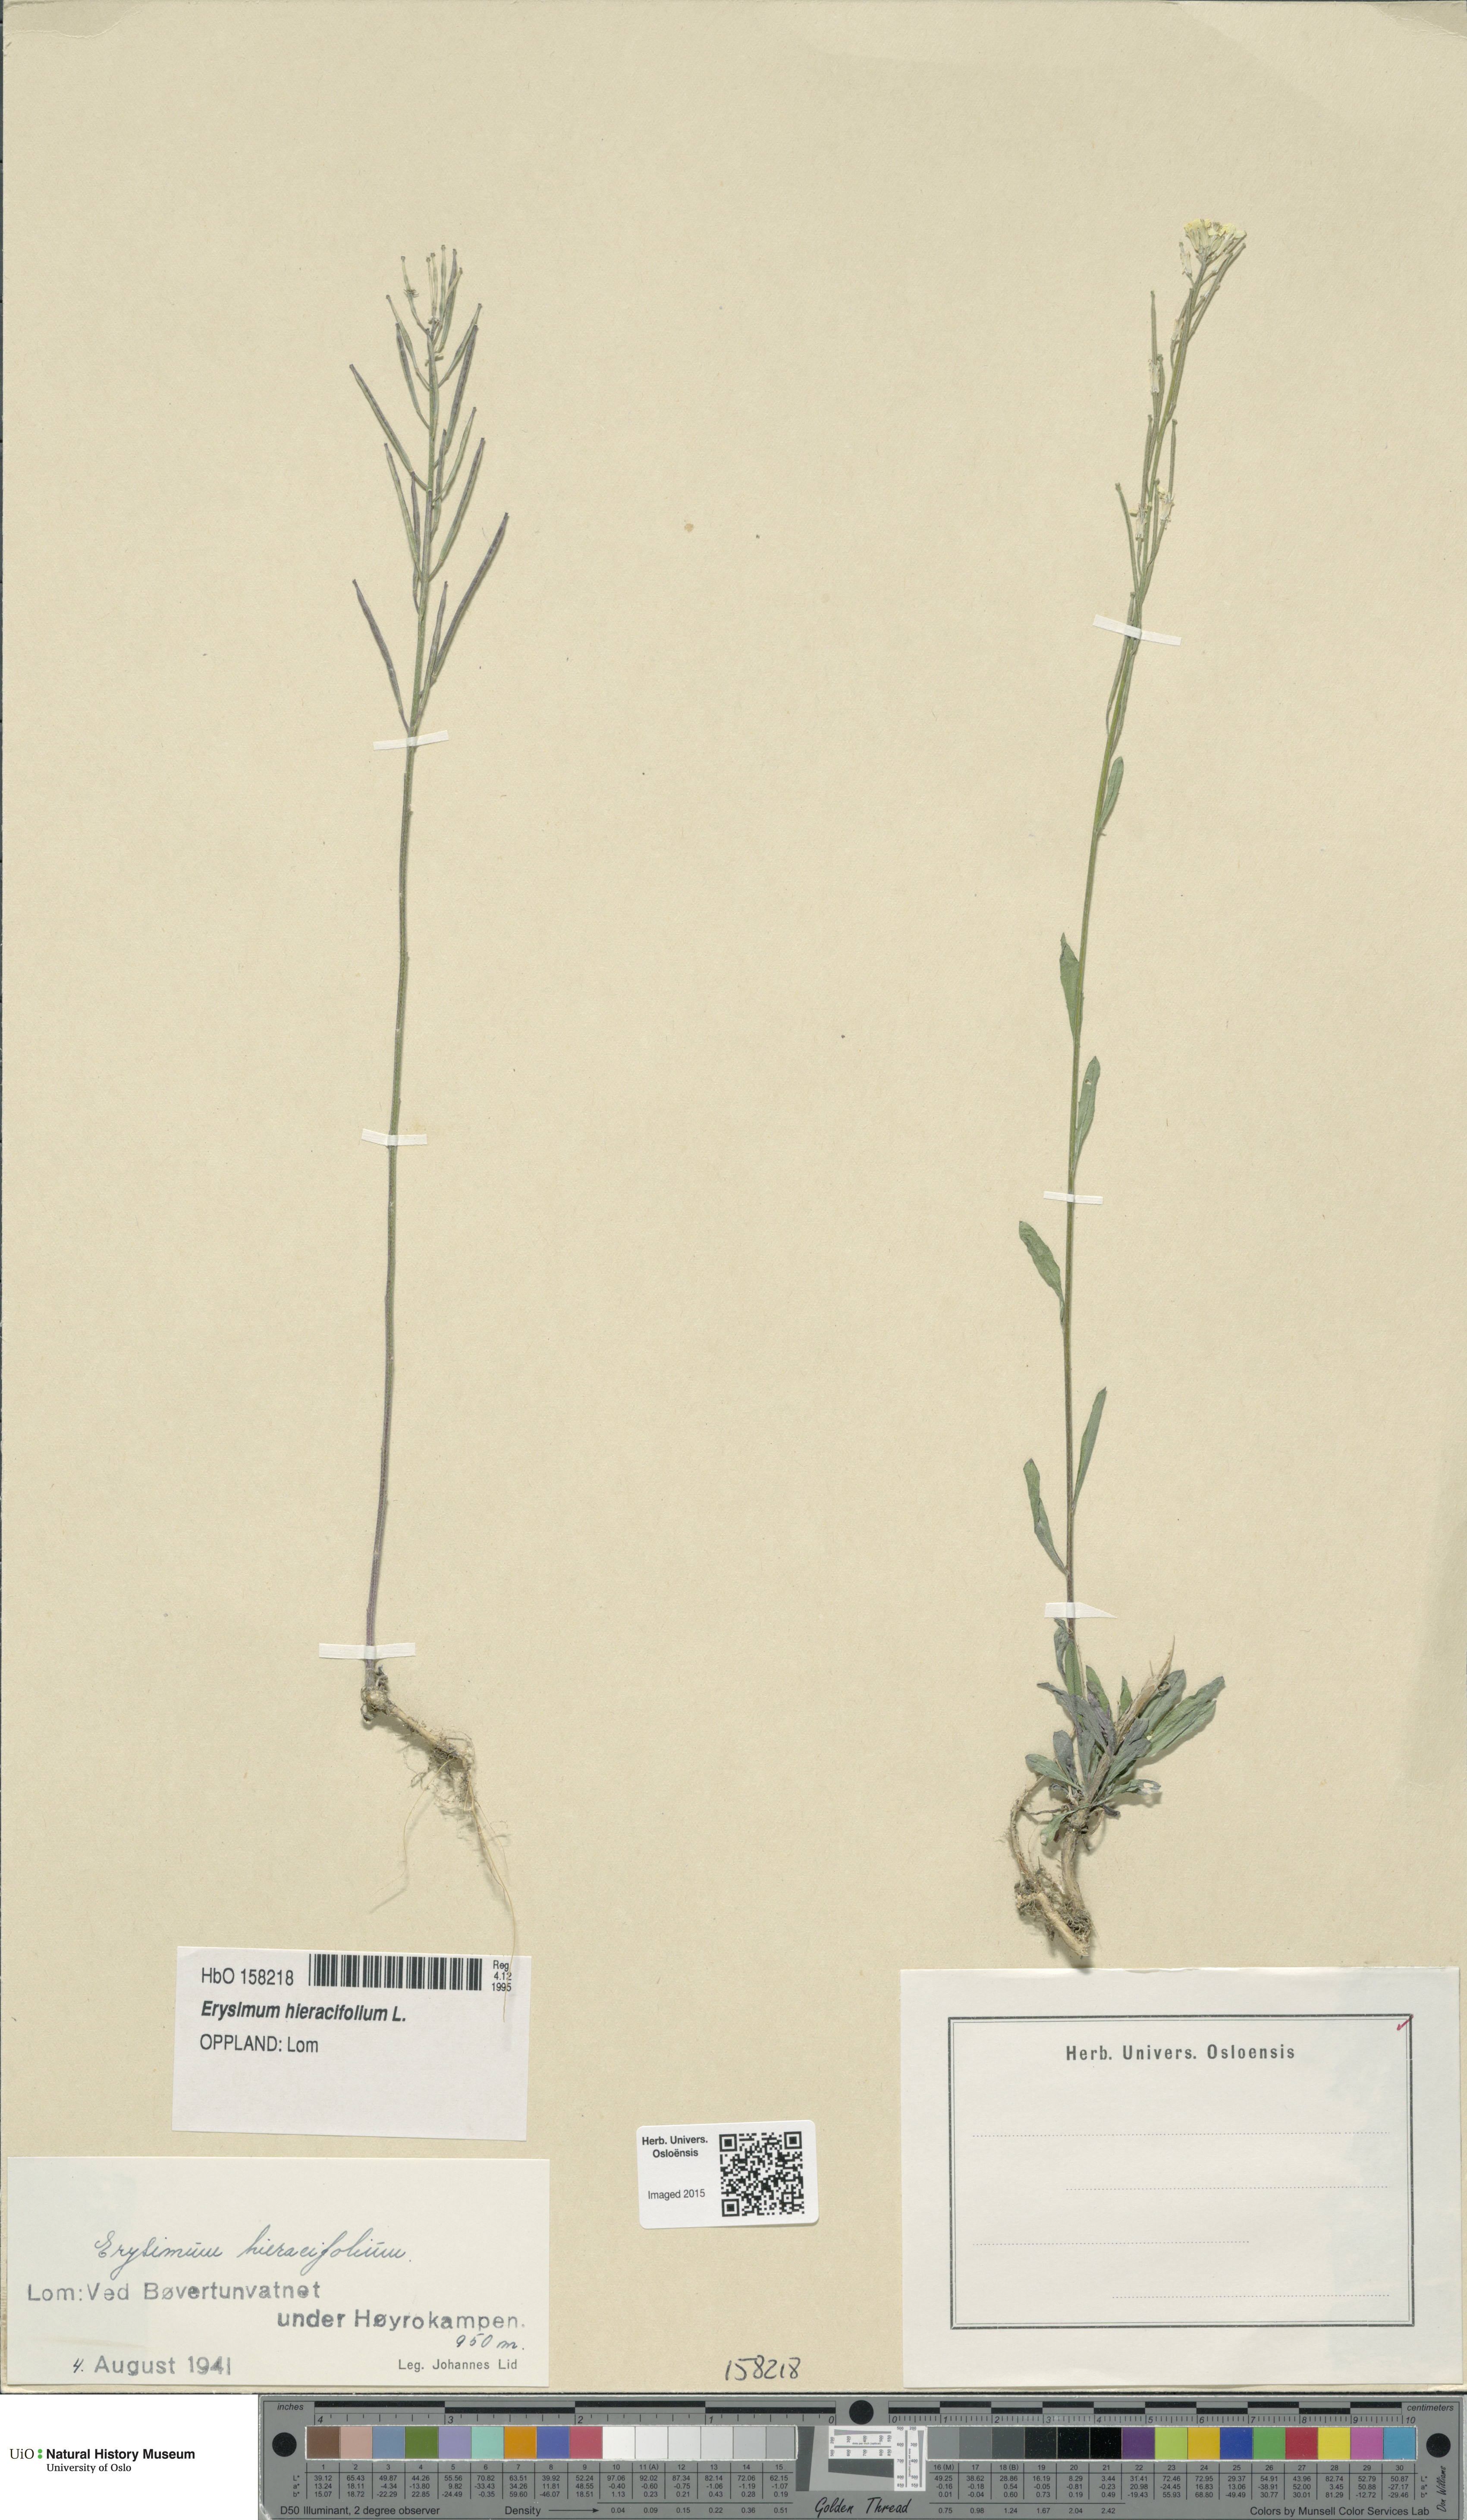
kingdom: Plantae
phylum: Tracheophyta
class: Magnoliopsida
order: Brassicales
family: Brassicaceae
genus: Erysimum
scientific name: Erysimum virgatum
